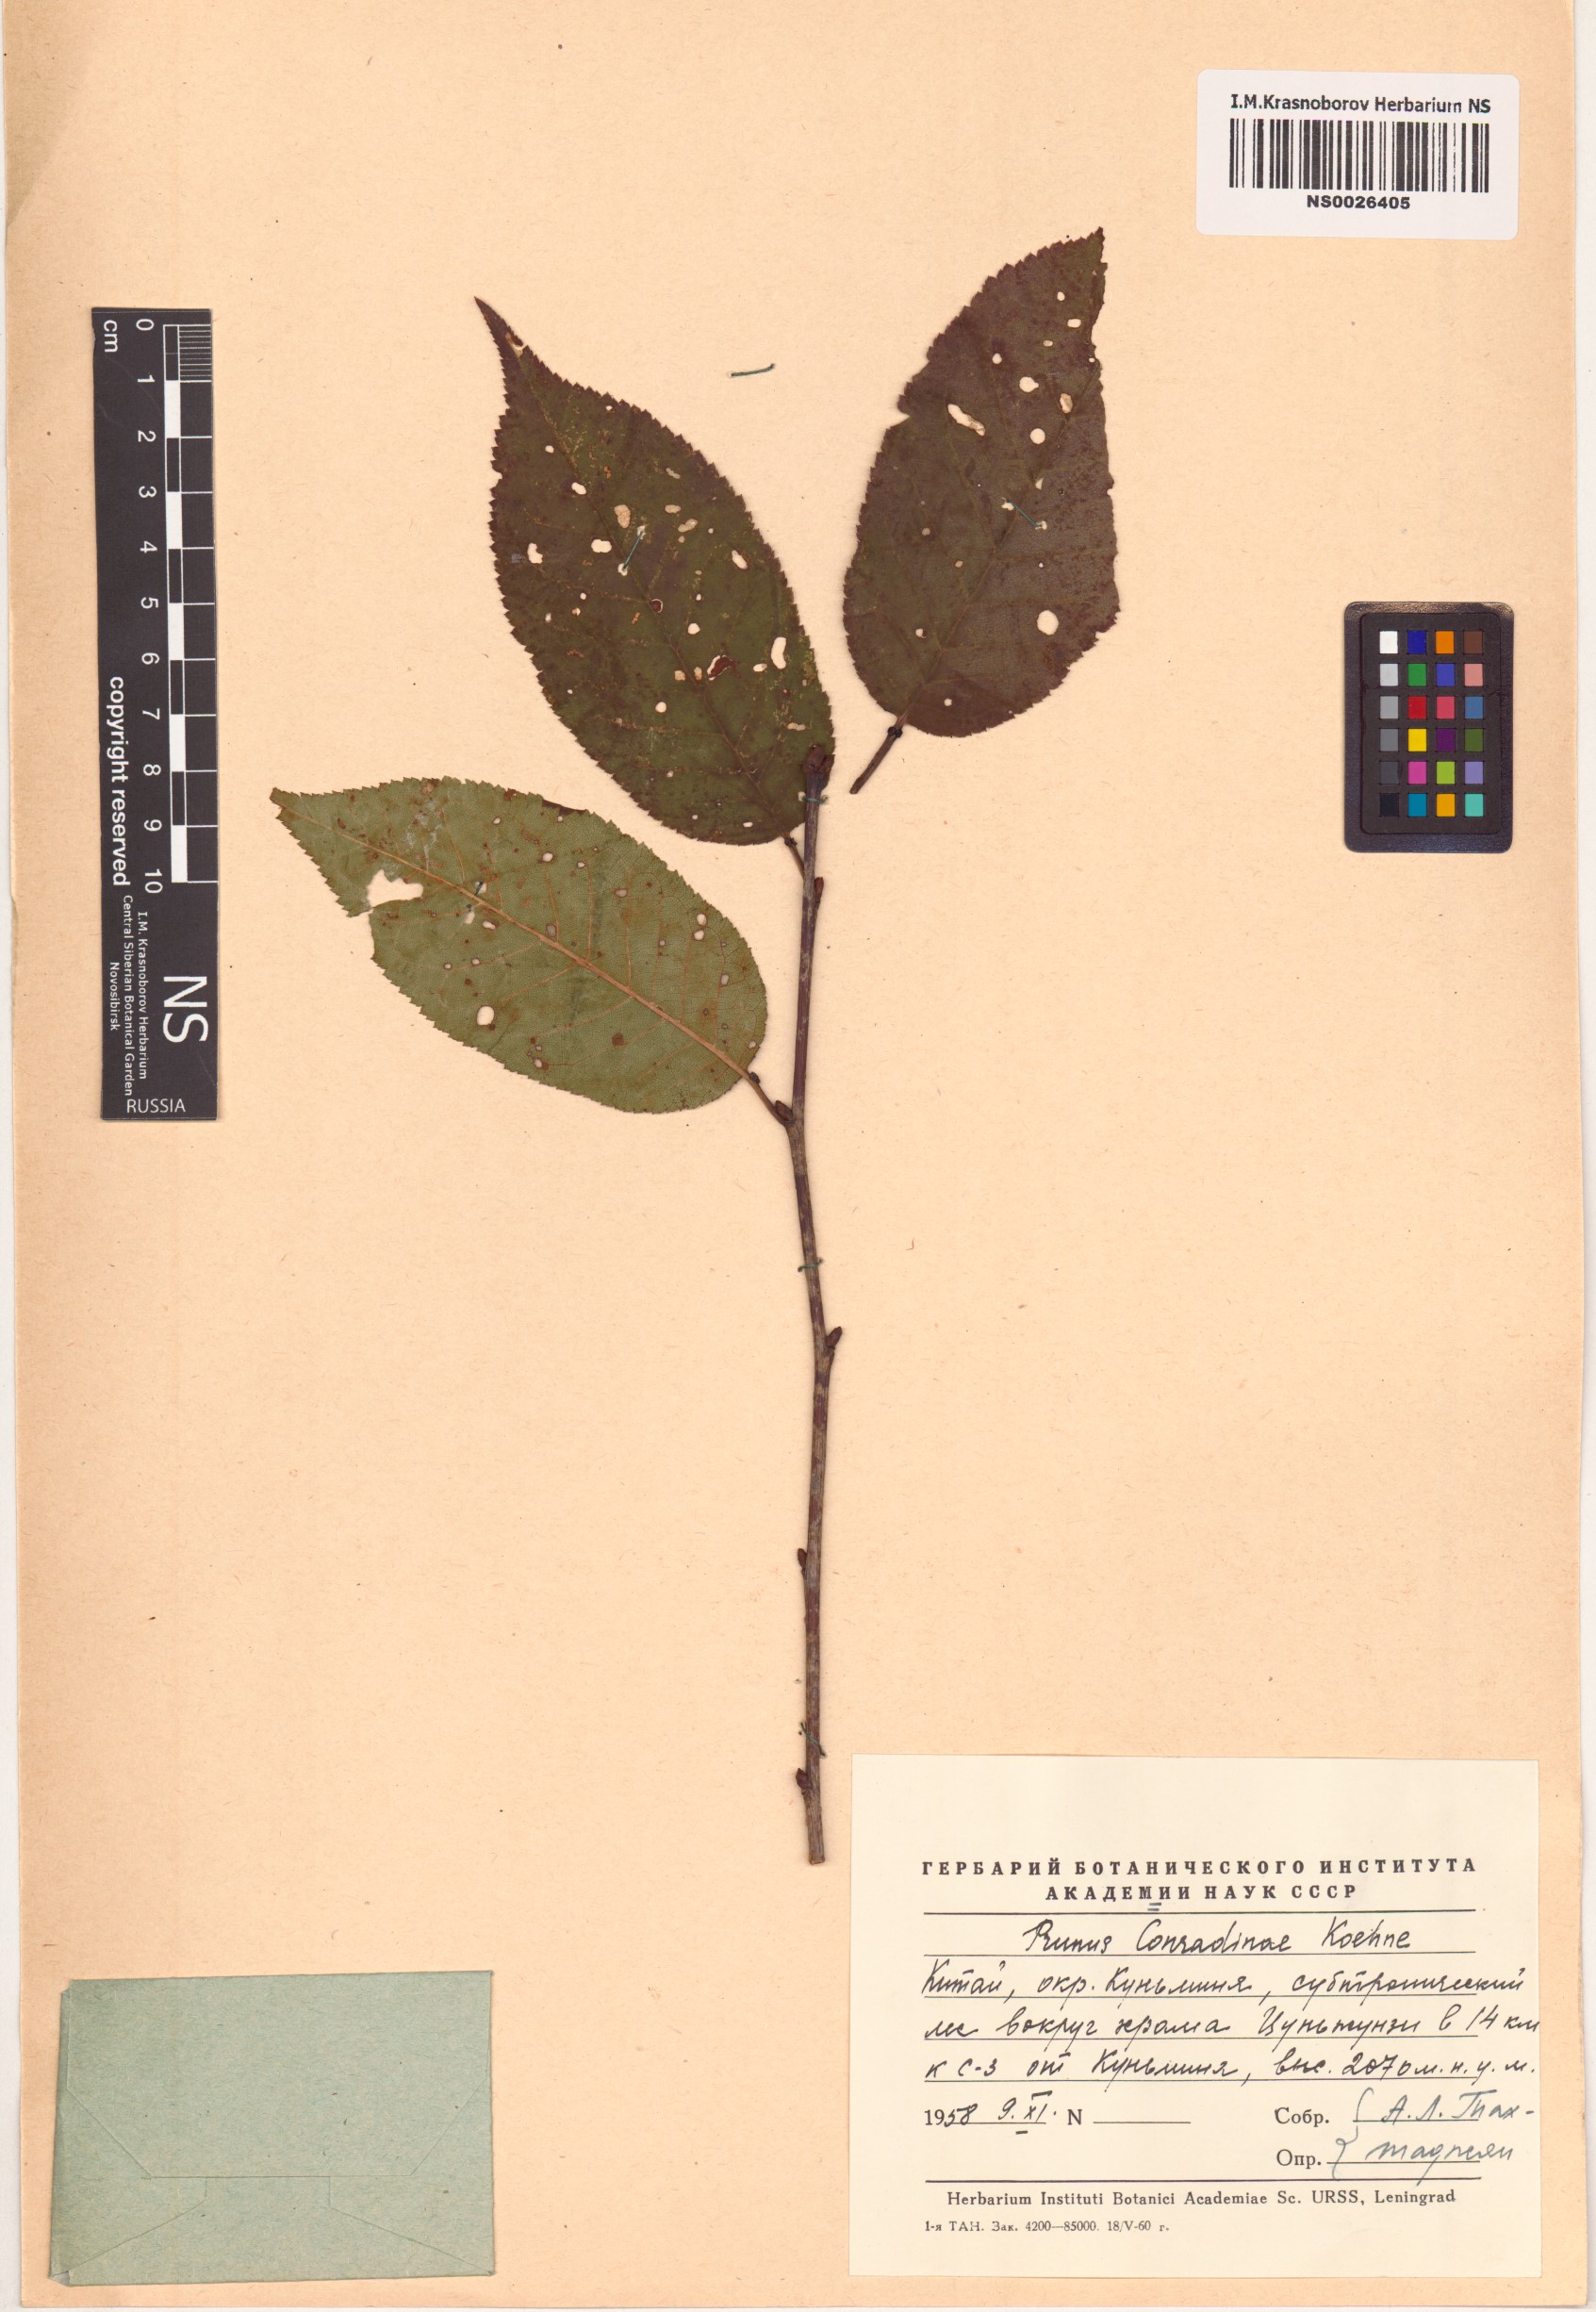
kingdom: Plantae
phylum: Tracheophyta
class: Magnoliopsida
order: Rosales
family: Rosaceae
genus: Prunus
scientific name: Prunus conradinae
